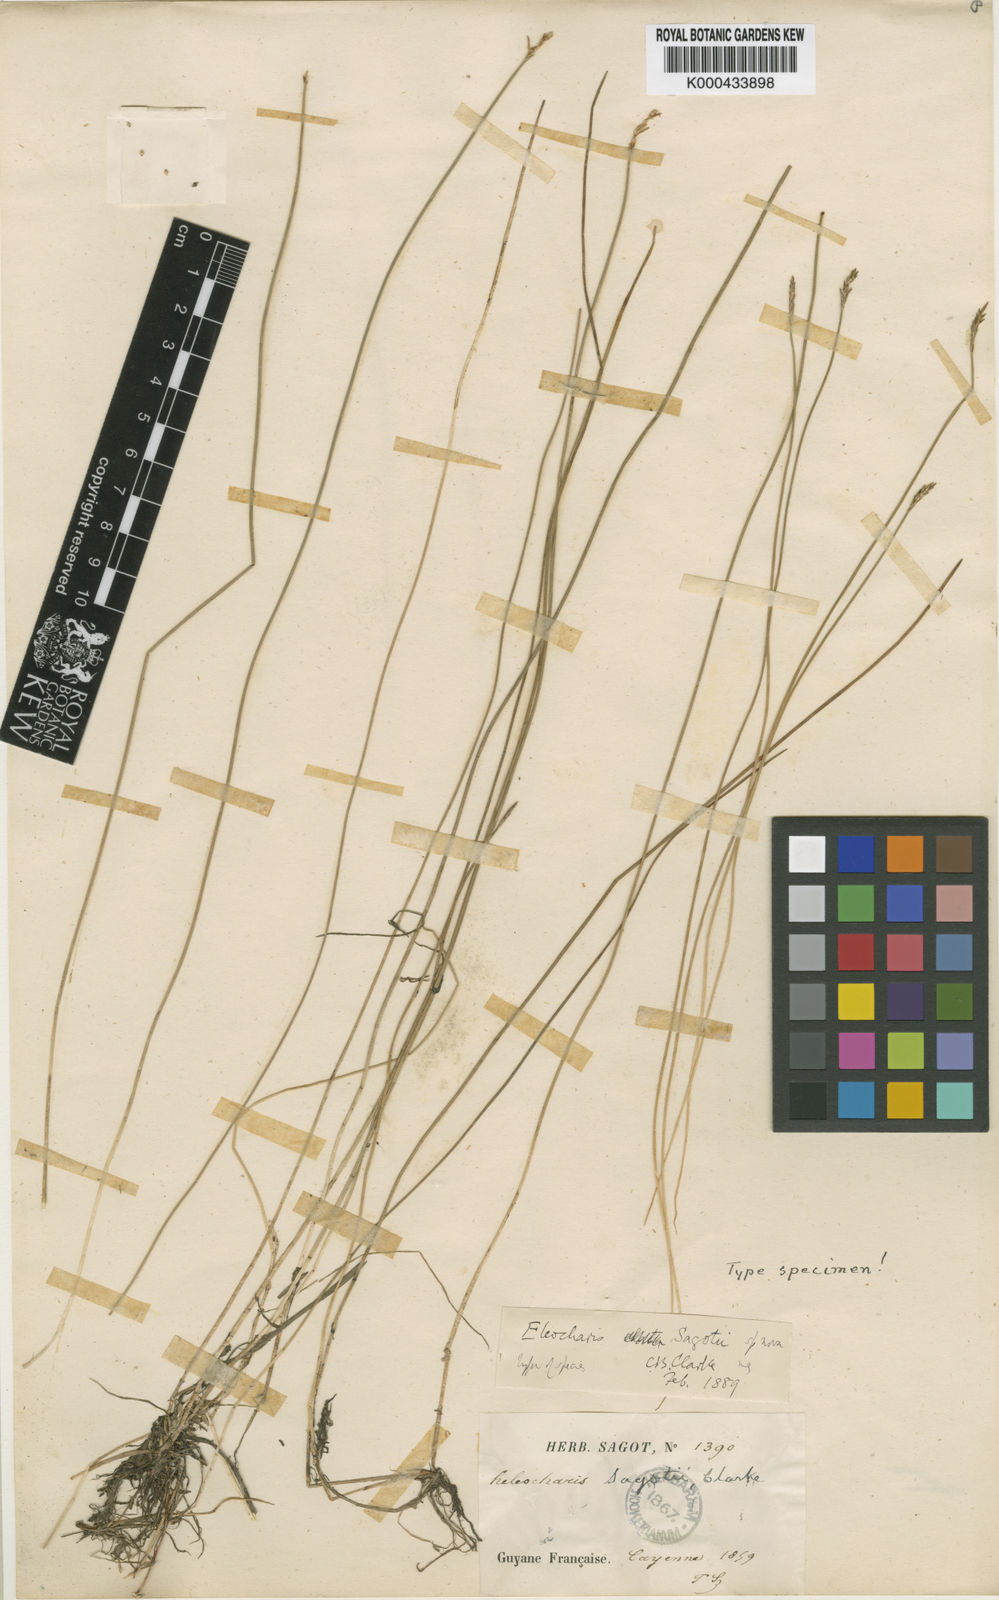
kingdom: Plantae
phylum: Tracheophyta
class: Liliopsida
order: Poales
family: Cyperaceae
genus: Eleocharis
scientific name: Eleocharis jelskiana
